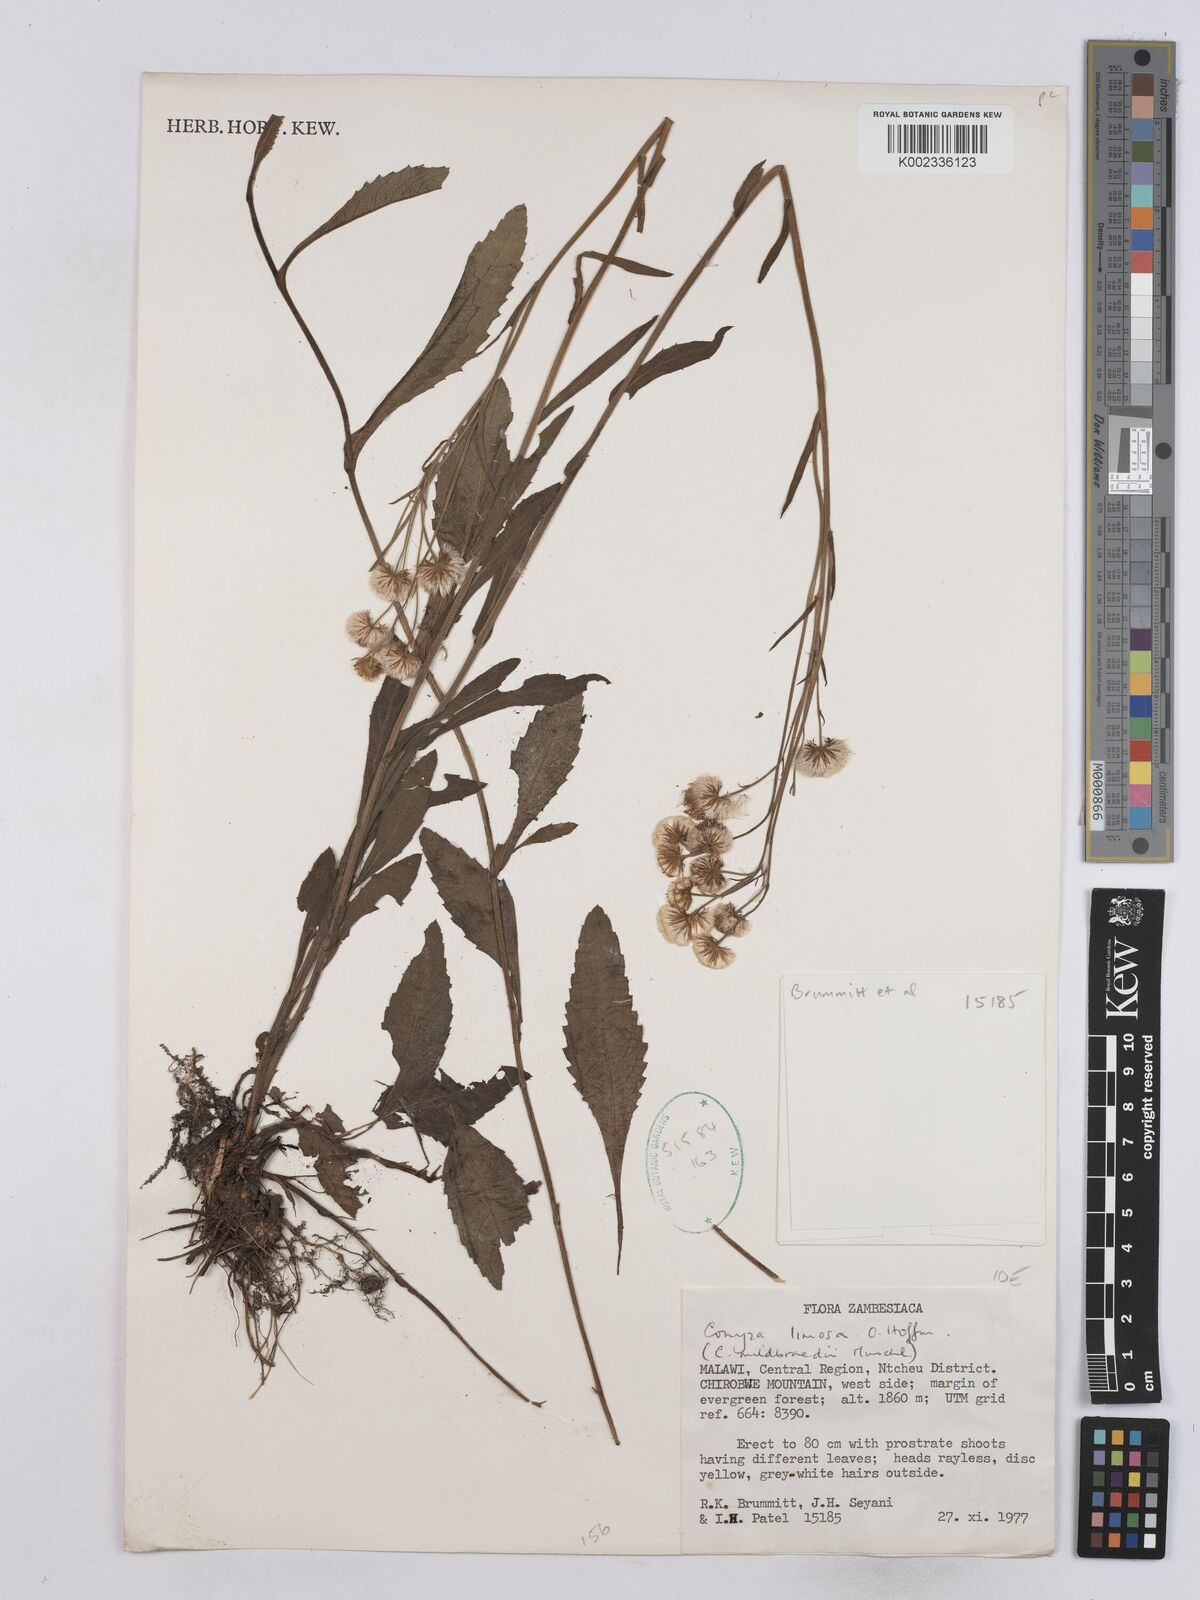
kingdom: Plantae
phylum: Tracheophyta
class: Magnoliopsida
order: Asterales
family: Asteraceae
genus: Conyza
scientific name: Conyza limosa
